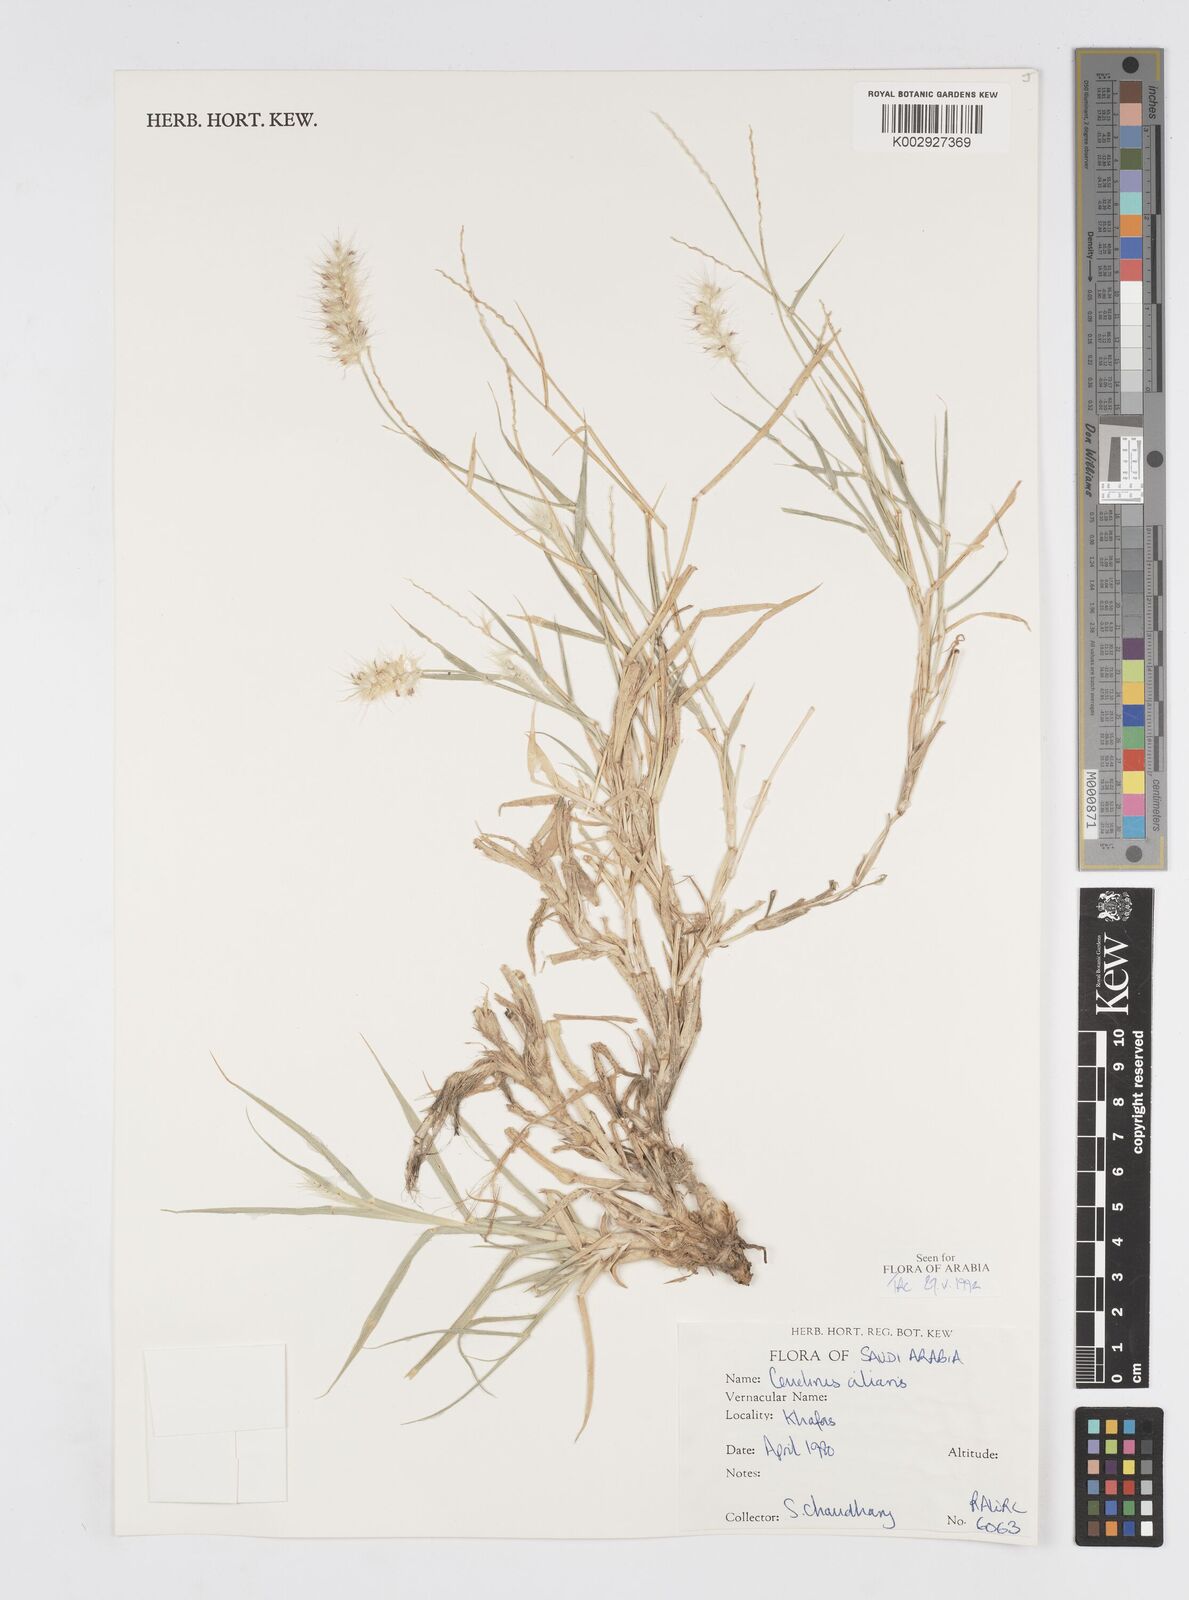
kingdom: Plantae
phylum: Tracheophyta
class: Liliopsida
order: Poales
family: Poaceae
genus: Cenchrus
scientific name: Cenchrus ciliaris
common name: Buffelgrass
